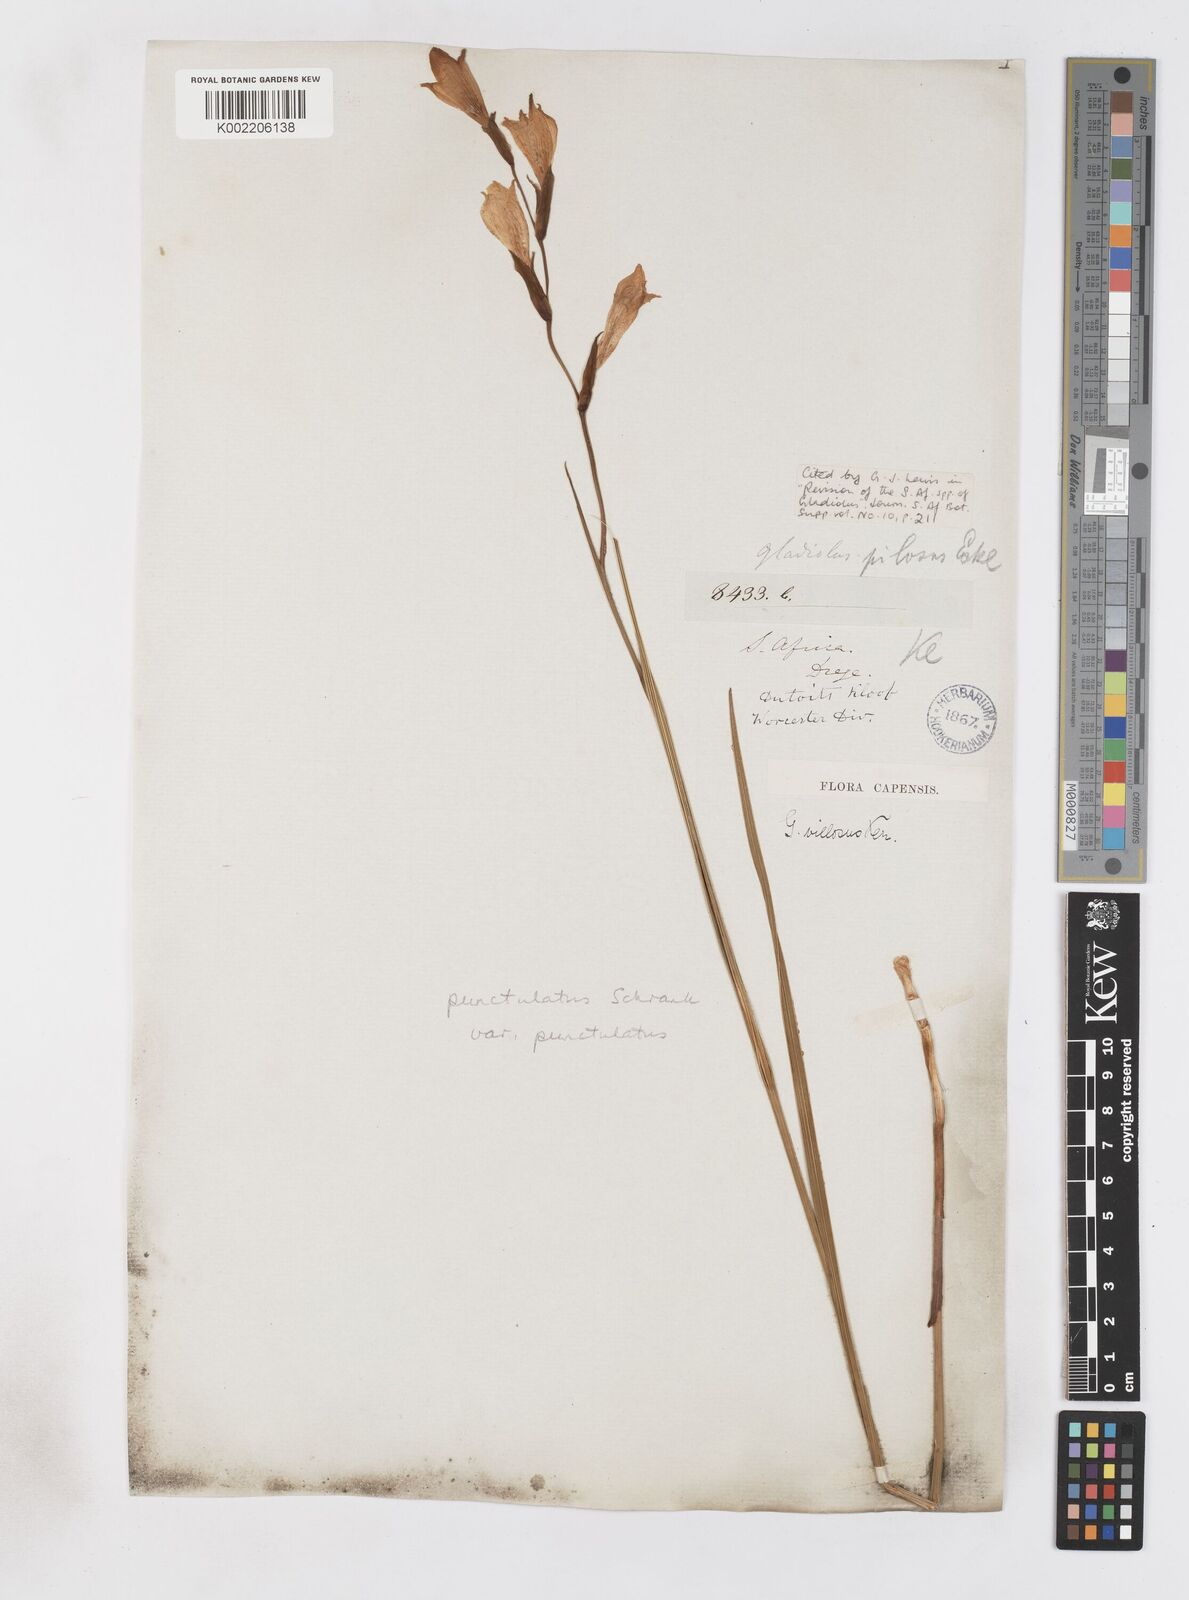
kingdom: Plantae
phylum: Tracheophyta
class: Liliopsida
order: Asparagales
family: Iridaceae
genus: Gladiolus
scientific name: Gladiolus hirsutus
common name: Small pink afrikaner
